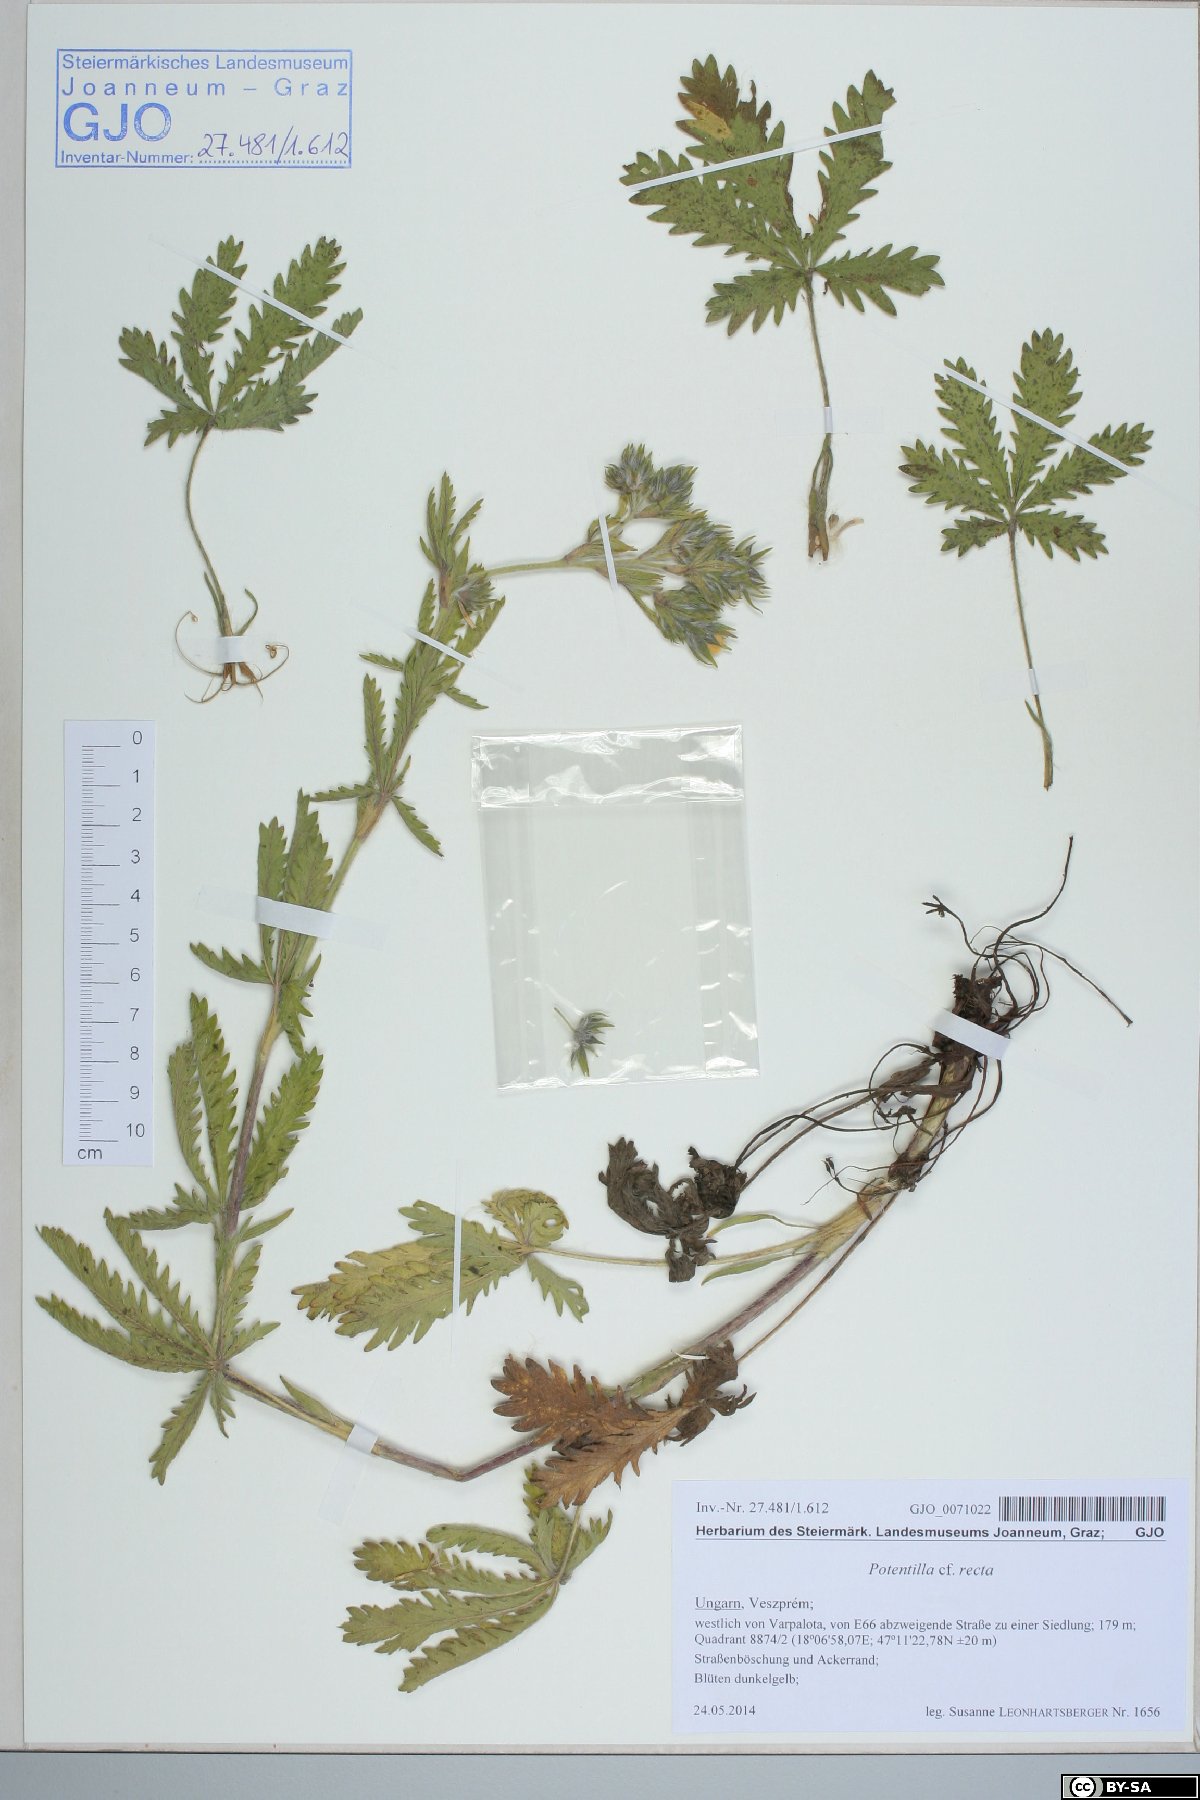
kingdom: Plantae
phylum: Tracheophyta
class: Magnoliopsida
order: Rosales
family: Rosaceae
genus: Potentilla
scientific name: Potentilla recta
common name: Sulphur cinquefoil
